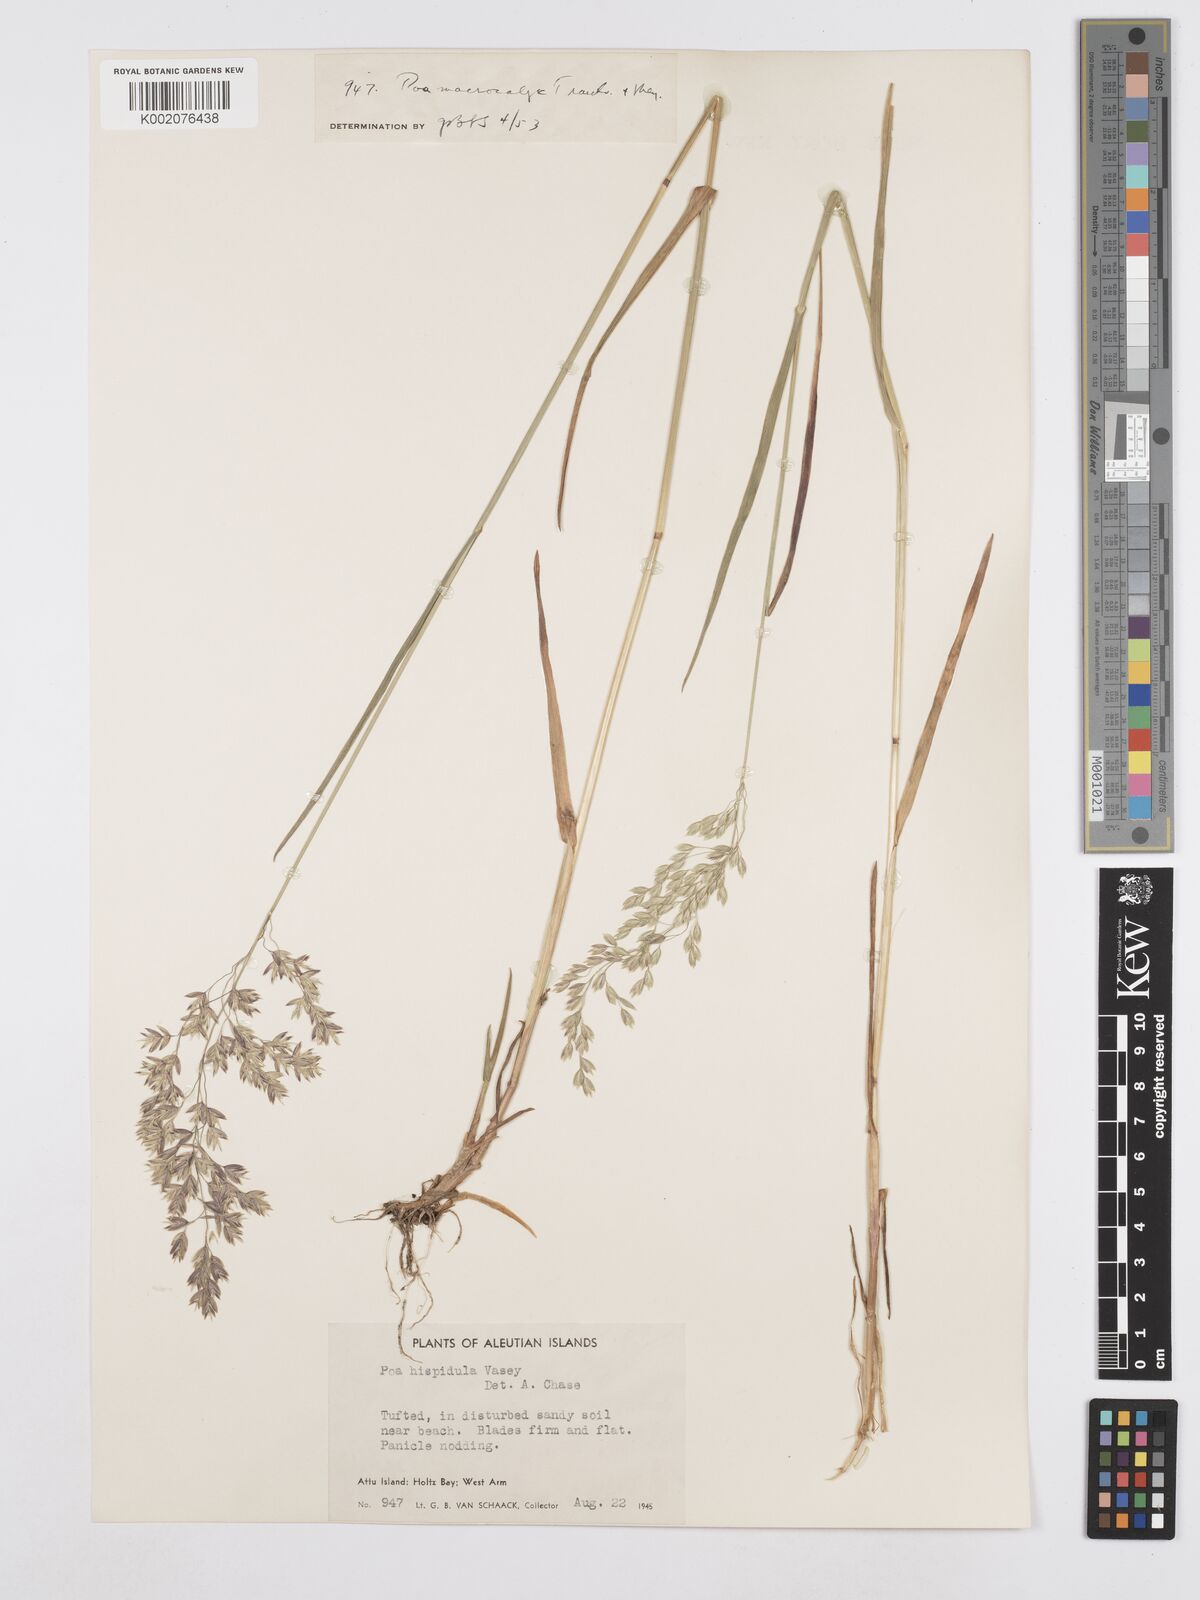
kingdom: Plantae
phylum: Tracheophyta
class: Liliopsida
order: Poales
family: Poaceae
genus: Poa
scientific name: Poa macrocalyx
